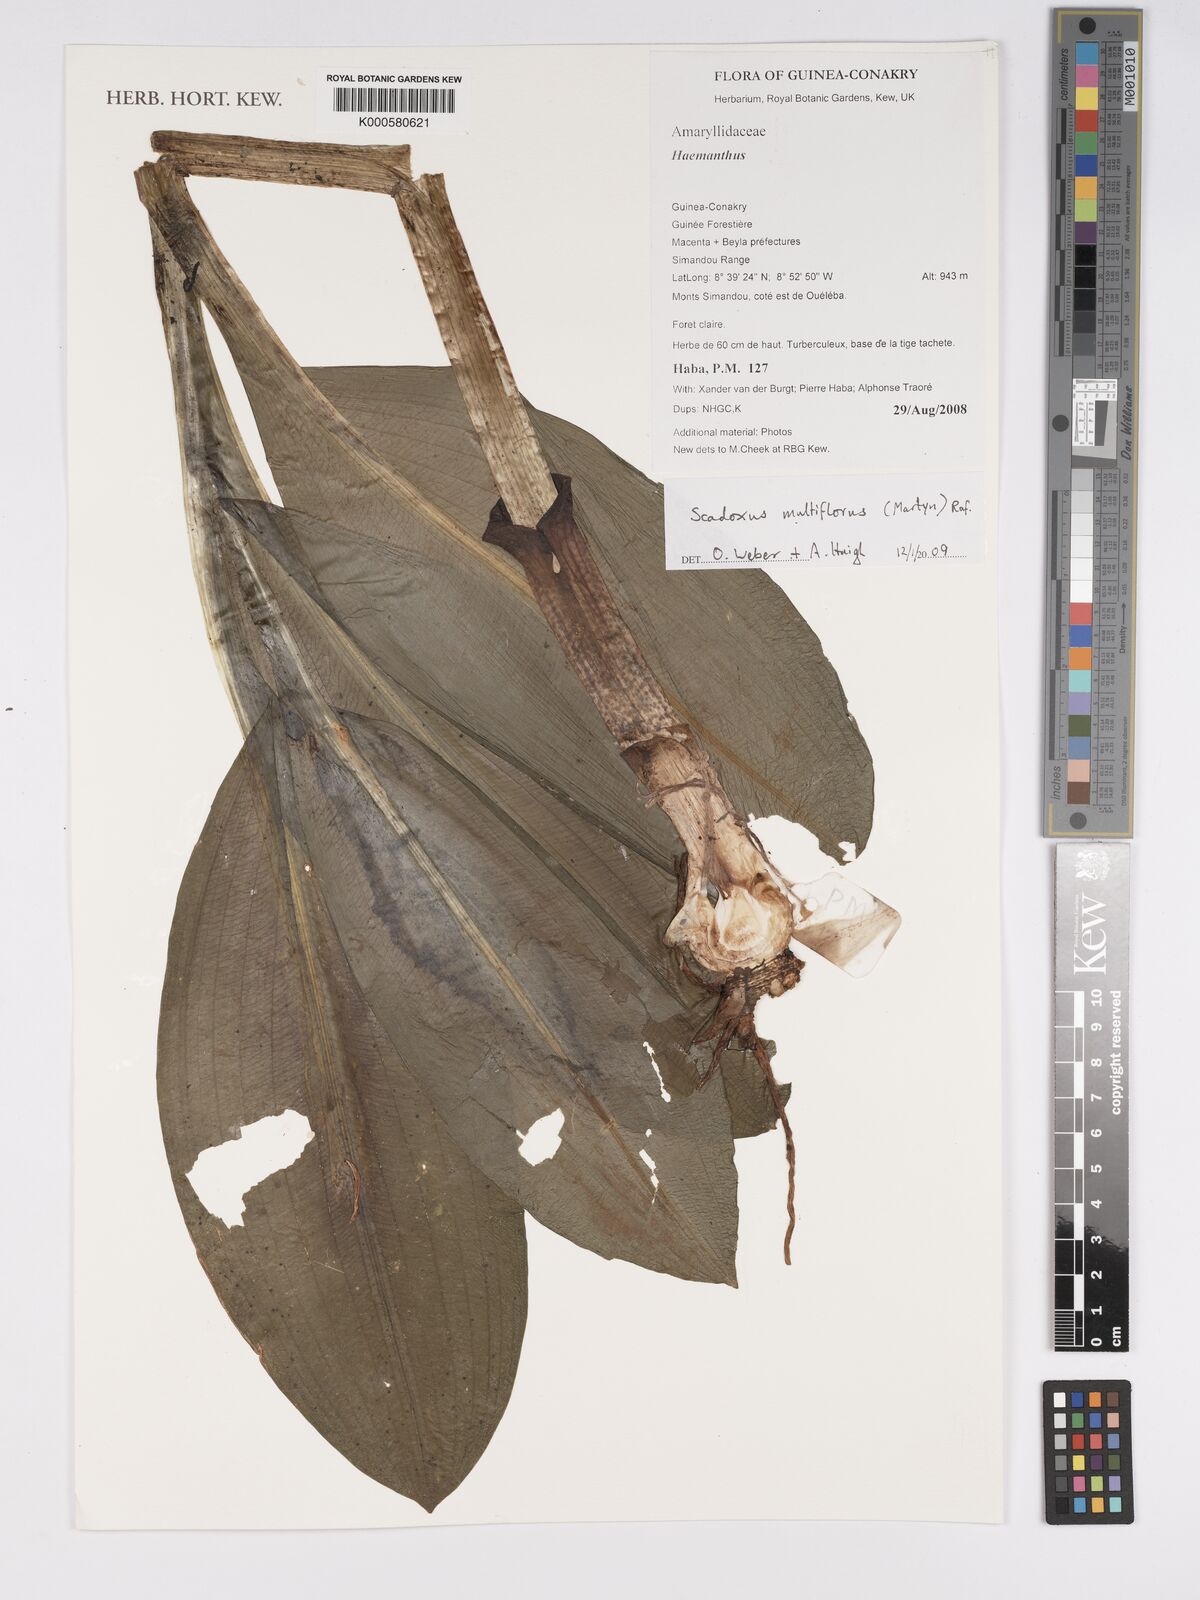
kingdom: Plantae
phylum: Tracheophyta
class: Liliopsida
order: Asparagales
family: Amaryllidaceae
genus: Scadoxus
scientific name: Scadoxus multiflorus
